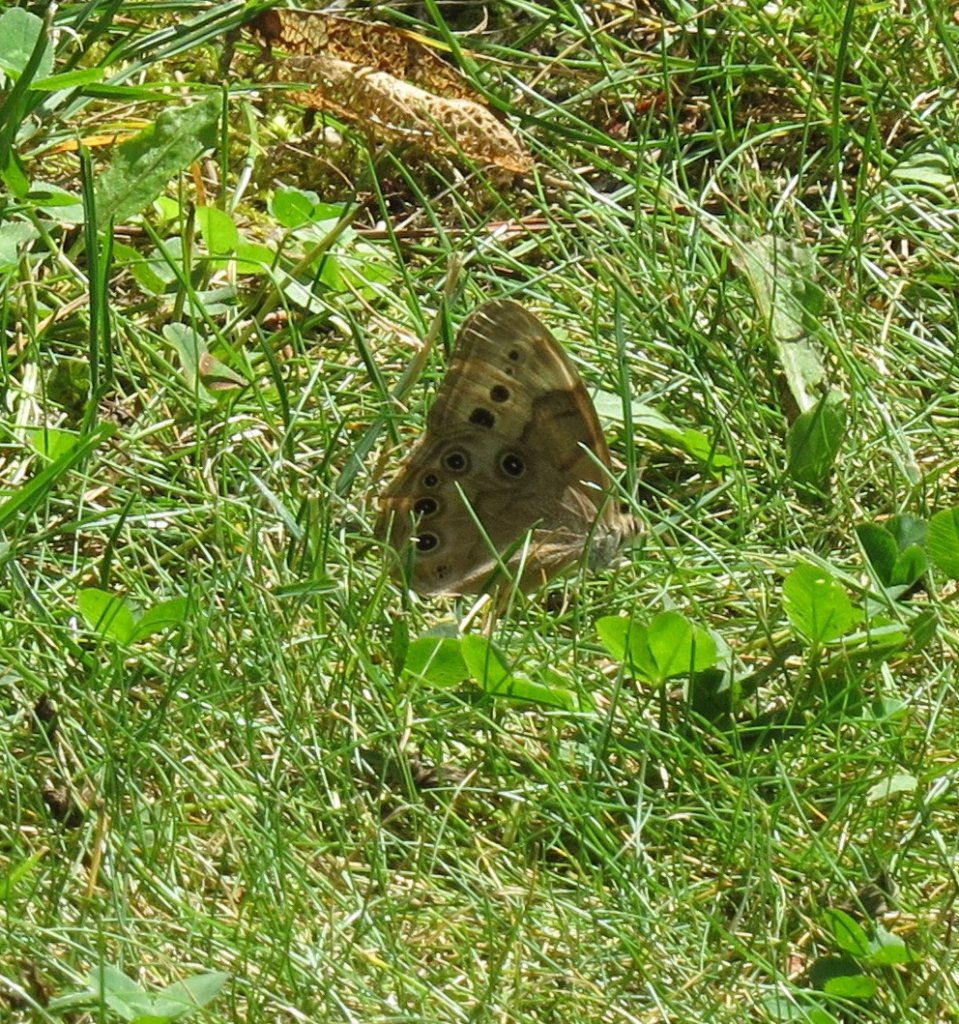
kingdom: Animalia
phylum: Arthropoda
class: Insecta
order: Lepidoptera
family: Nymphalidae
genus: Lethe
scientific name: Lethe anthedon
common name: Northern Pearly-Eye
